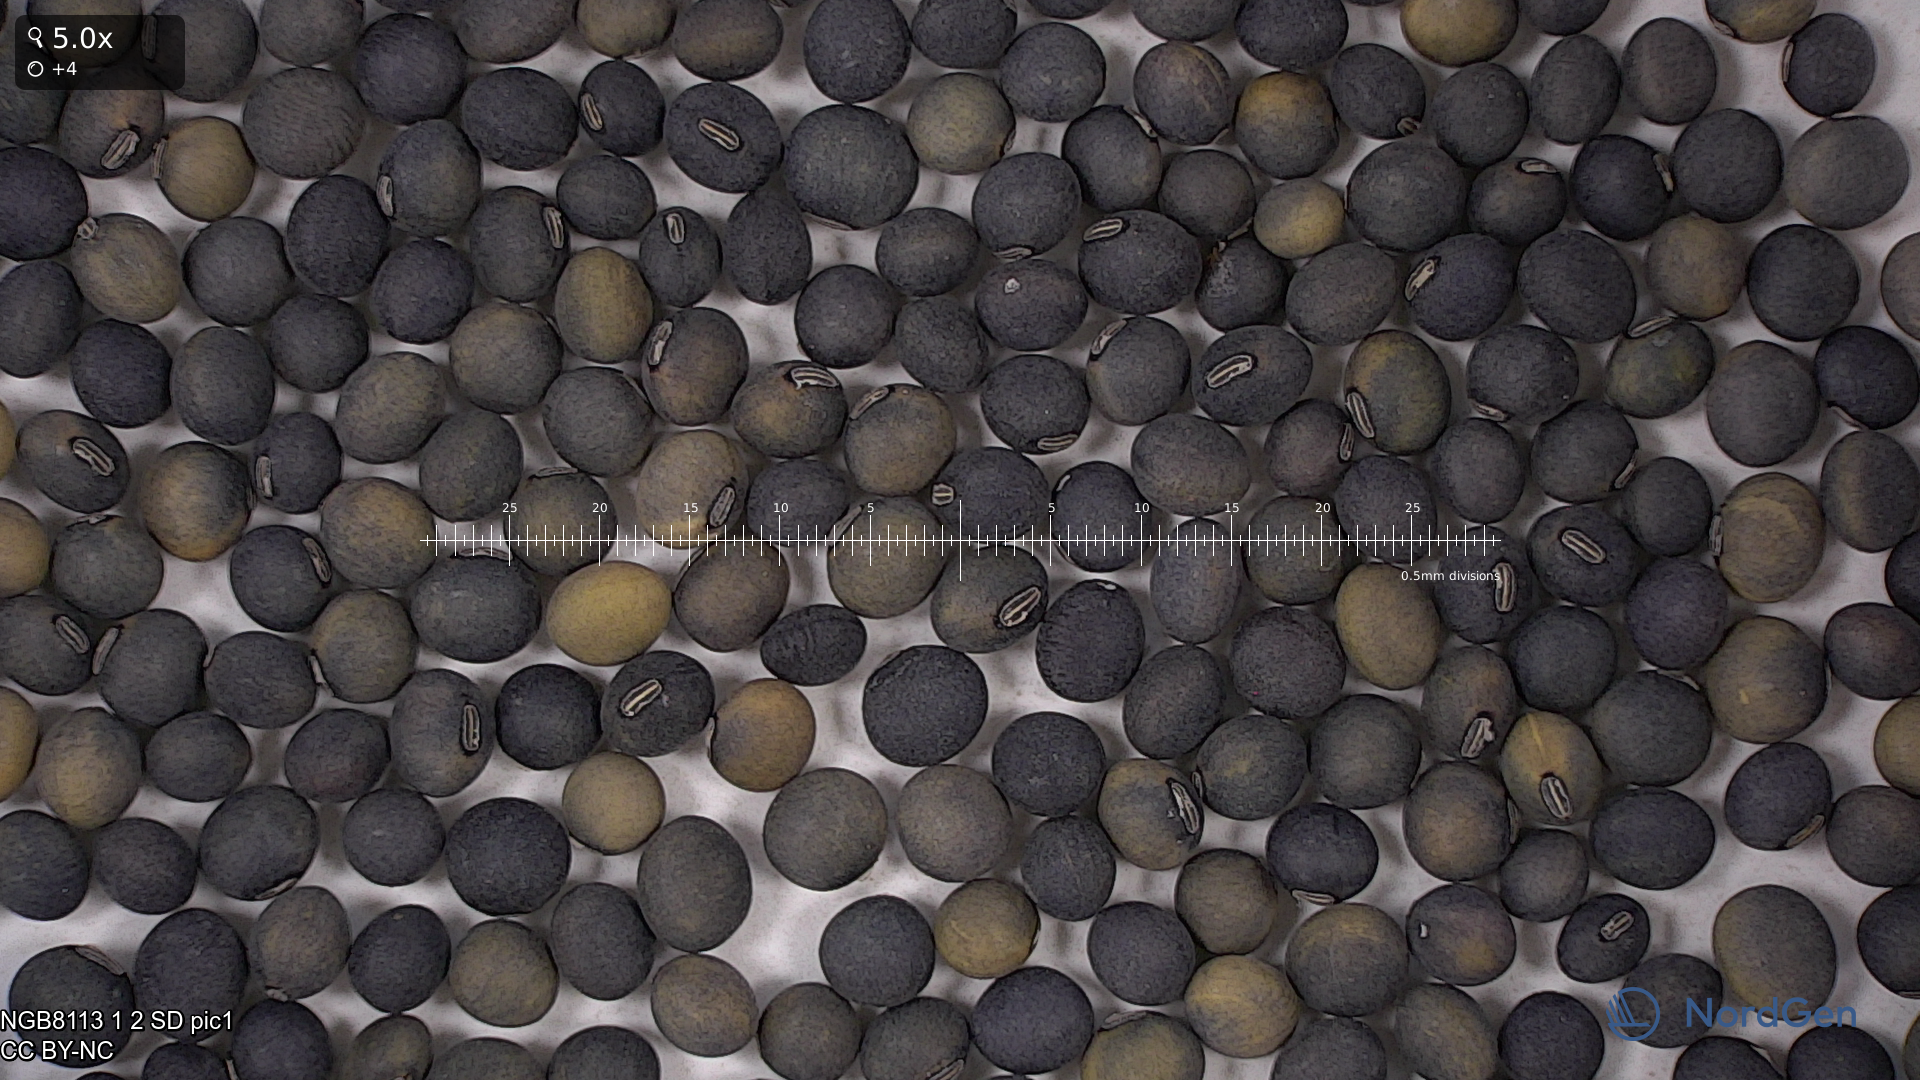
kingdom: Plantae
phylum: Tracheophyta
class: Magnoliopsida
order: Fabales
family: Fabaceae
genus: Glycine
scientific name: Glycine max
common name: Soya-bean
